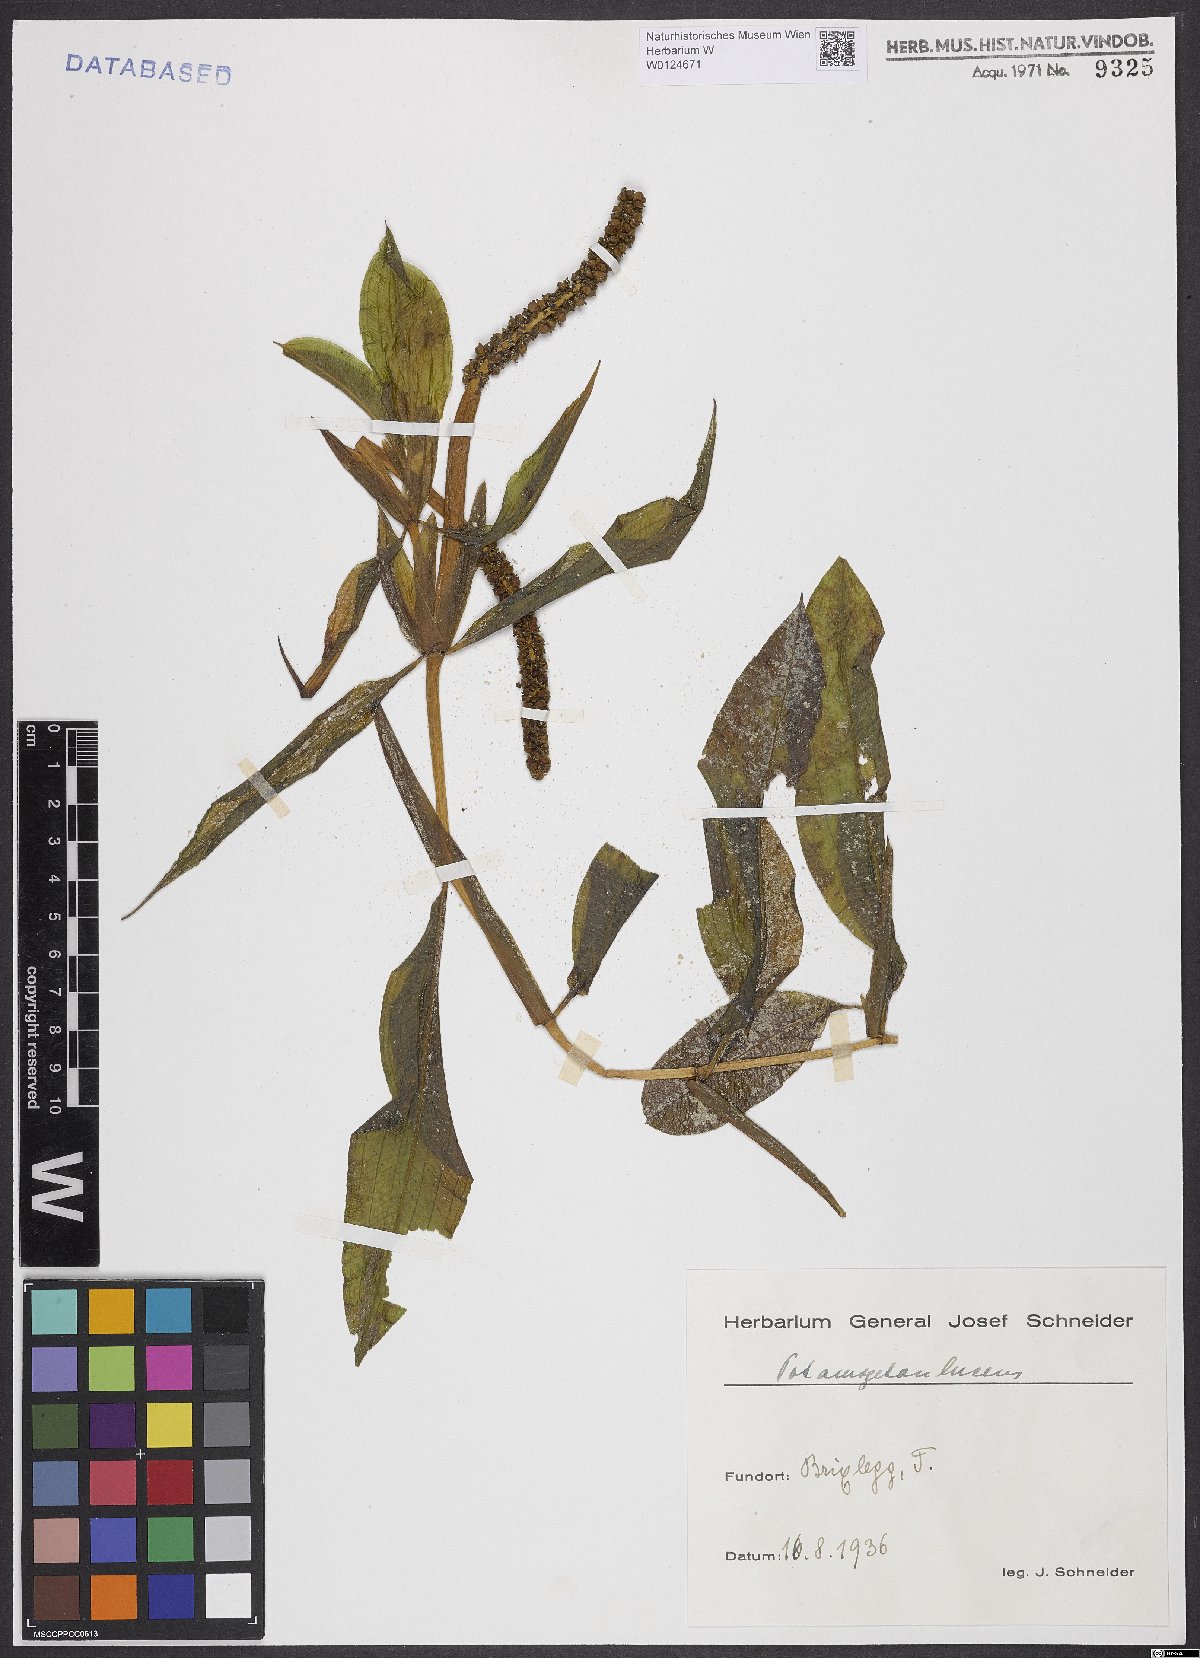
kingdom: Plantae
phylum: Tracheophyta
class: Liliopsida
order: Alismatales
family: Potamogetonaceae
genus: Potamogeton
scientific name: Potamogeton lucens
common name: Shining pondweed
